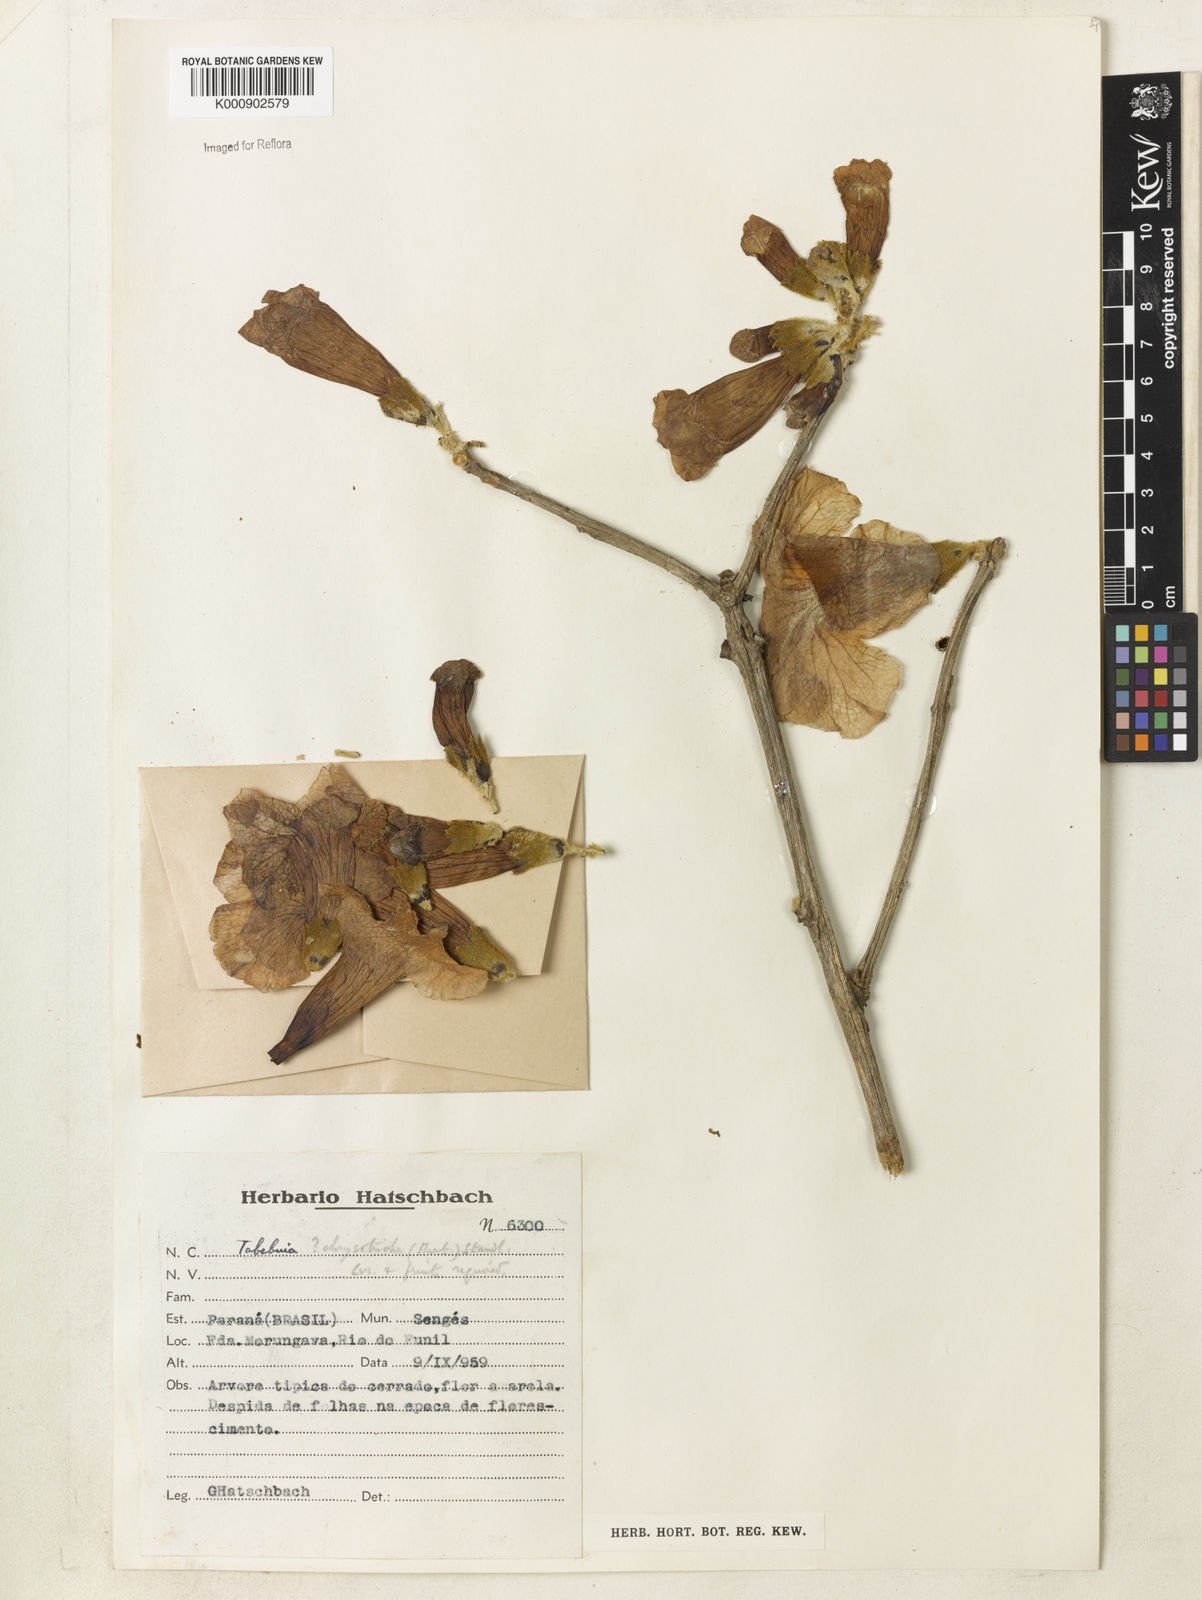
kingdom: Plantae
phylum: Tracheophyta
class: Magnoliopsida
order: Lamiales
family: Bignoniaceae
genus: Handroanthus
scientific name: Handroanthus chrysotrichus
